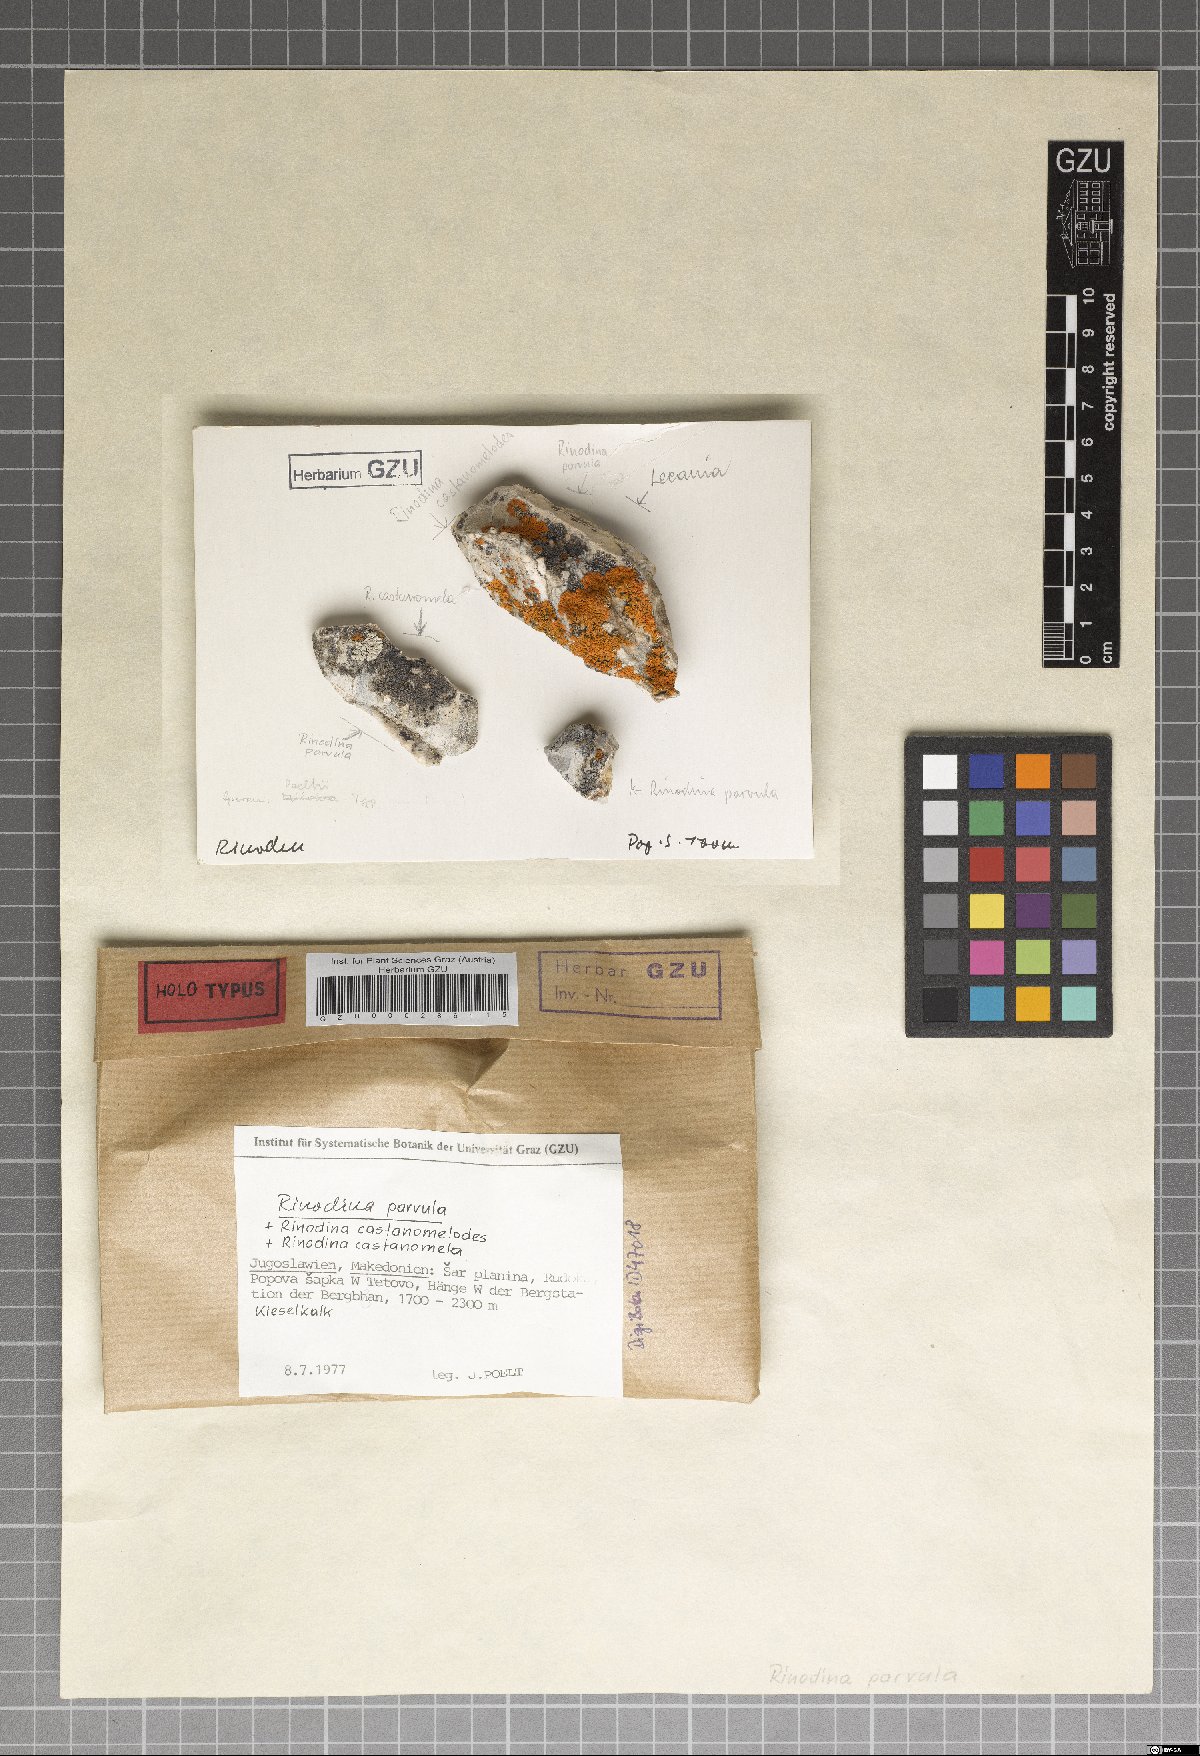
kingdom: Fungi
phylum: Ascomycota
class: Lecanoromycetes
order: Caliciales
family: Caliciaceae
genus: Buellia
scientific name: Buellia parvula
